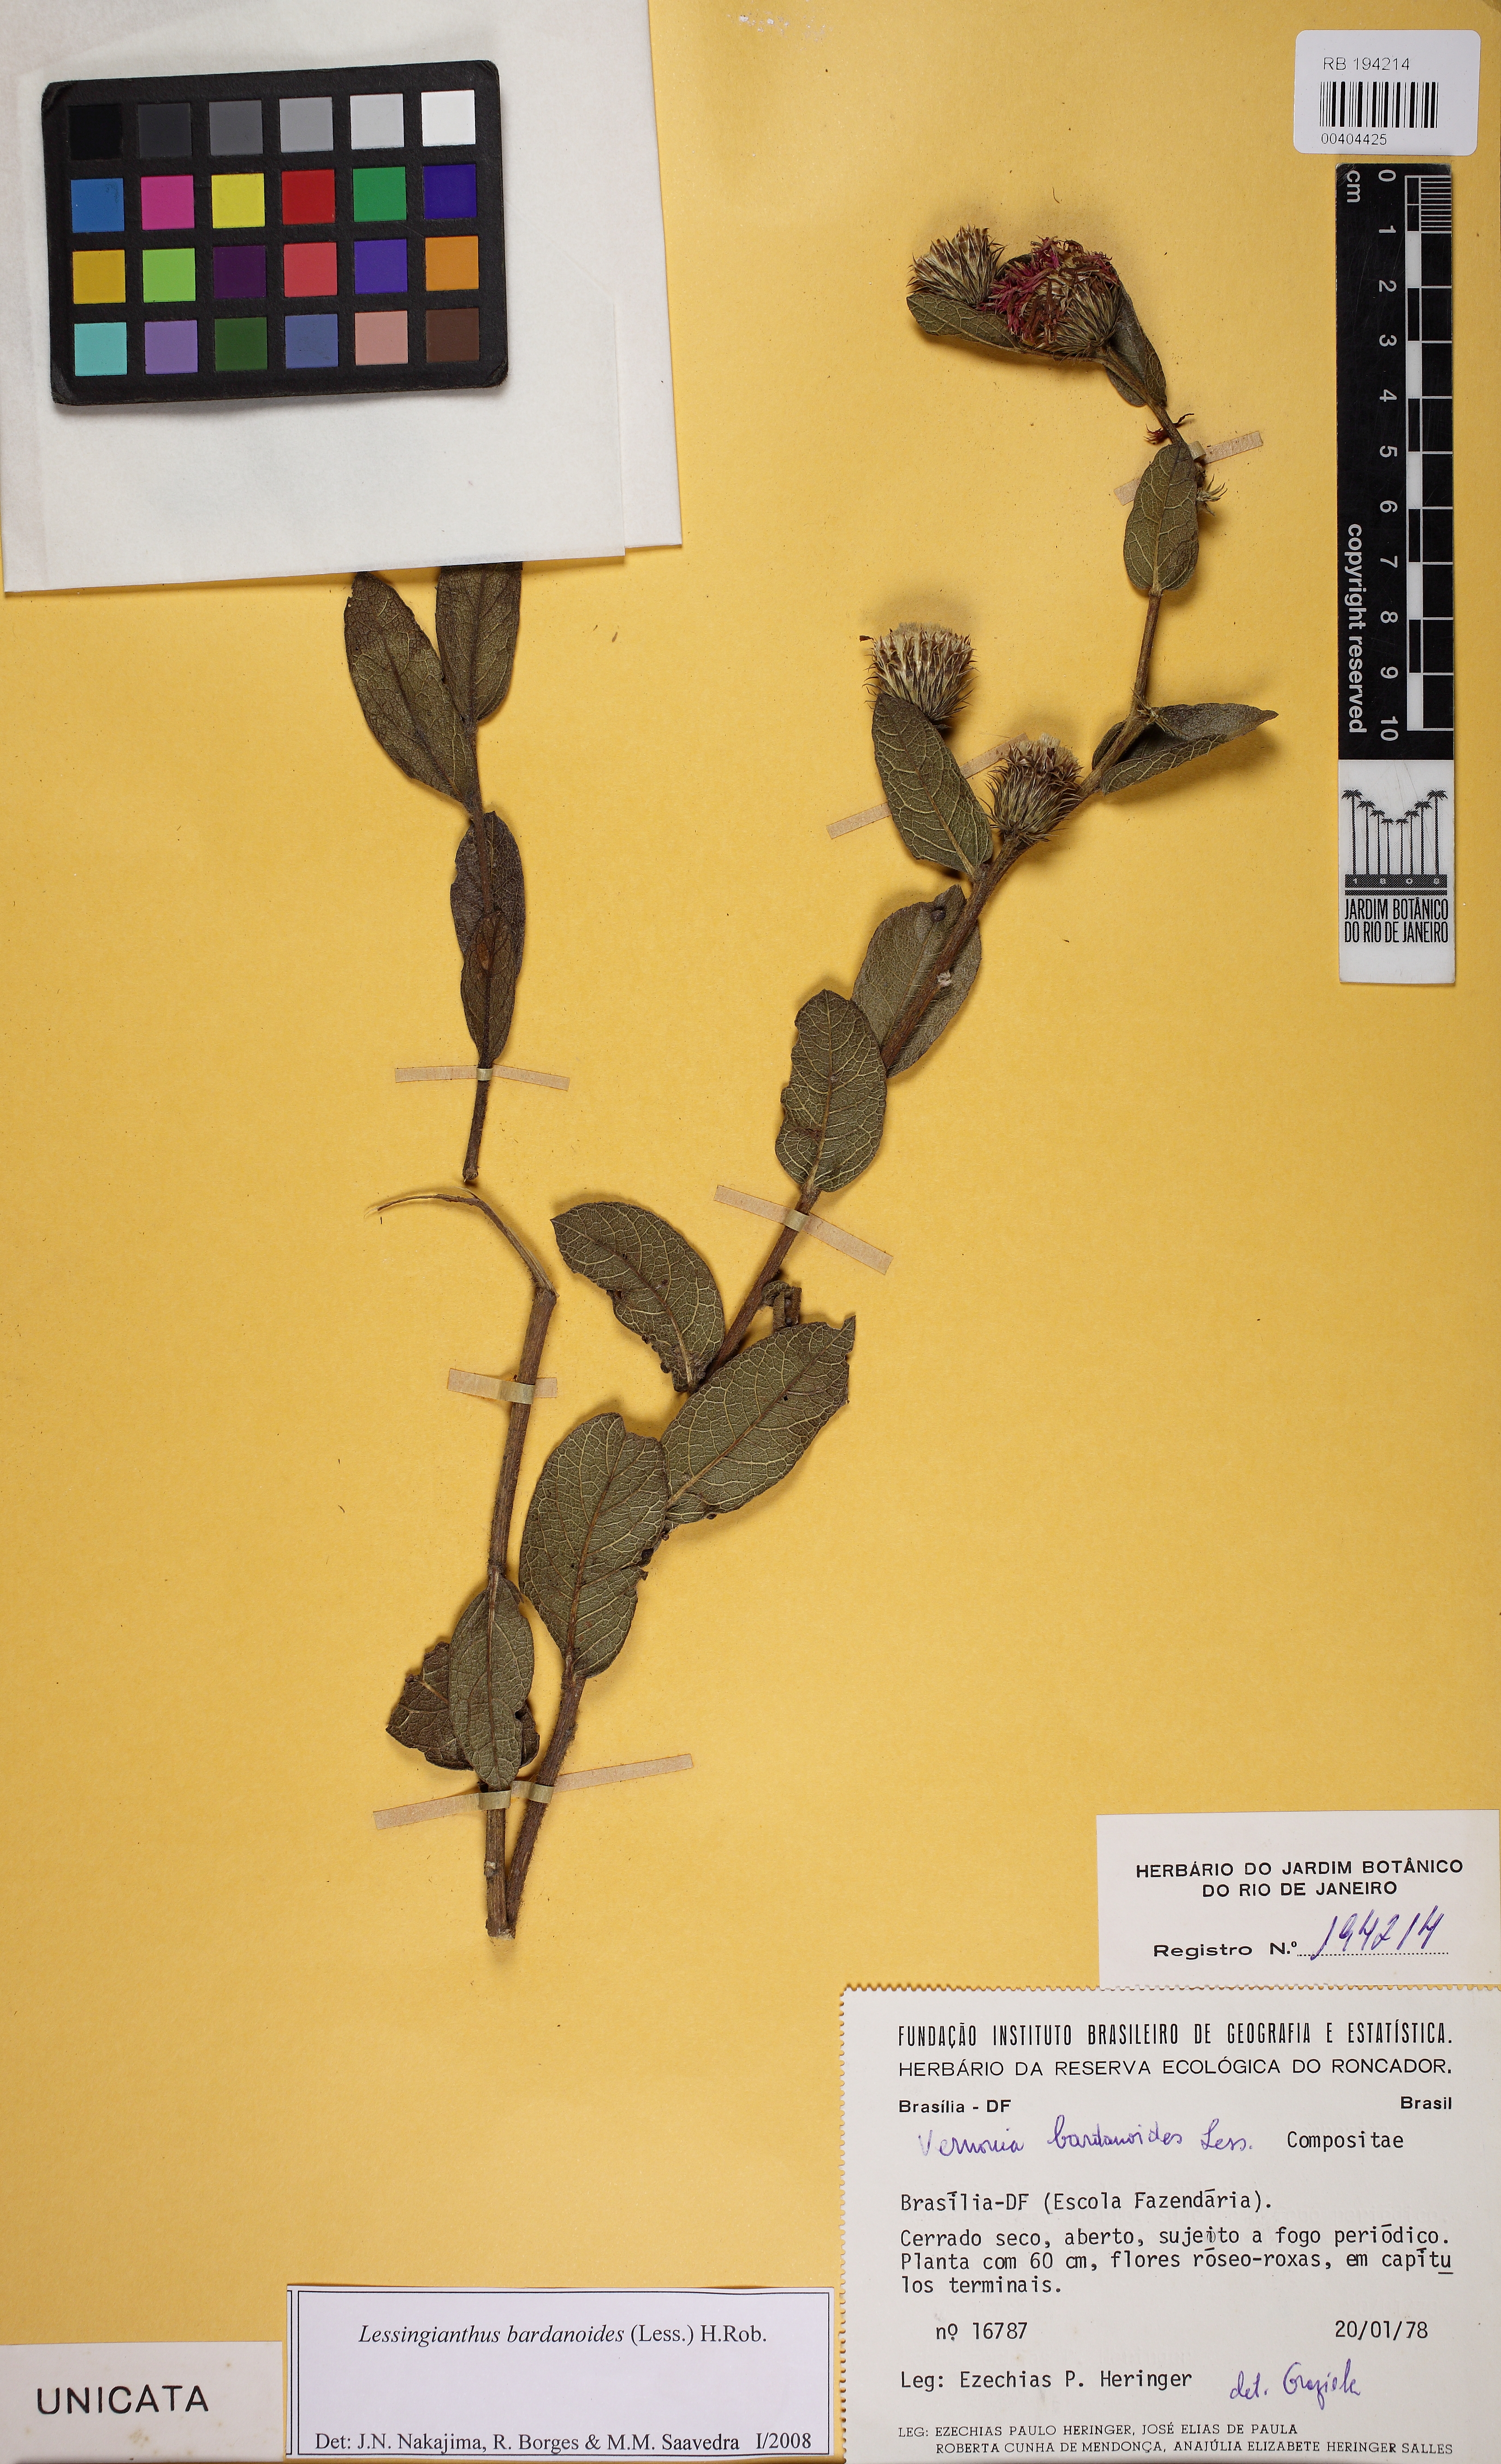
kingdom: Plantae
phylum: Tracheophyta
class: Magnoliopsida
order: Asterales
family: Asteraceae
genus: Lessingianthus
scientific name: Lessingianthus bardanioides
